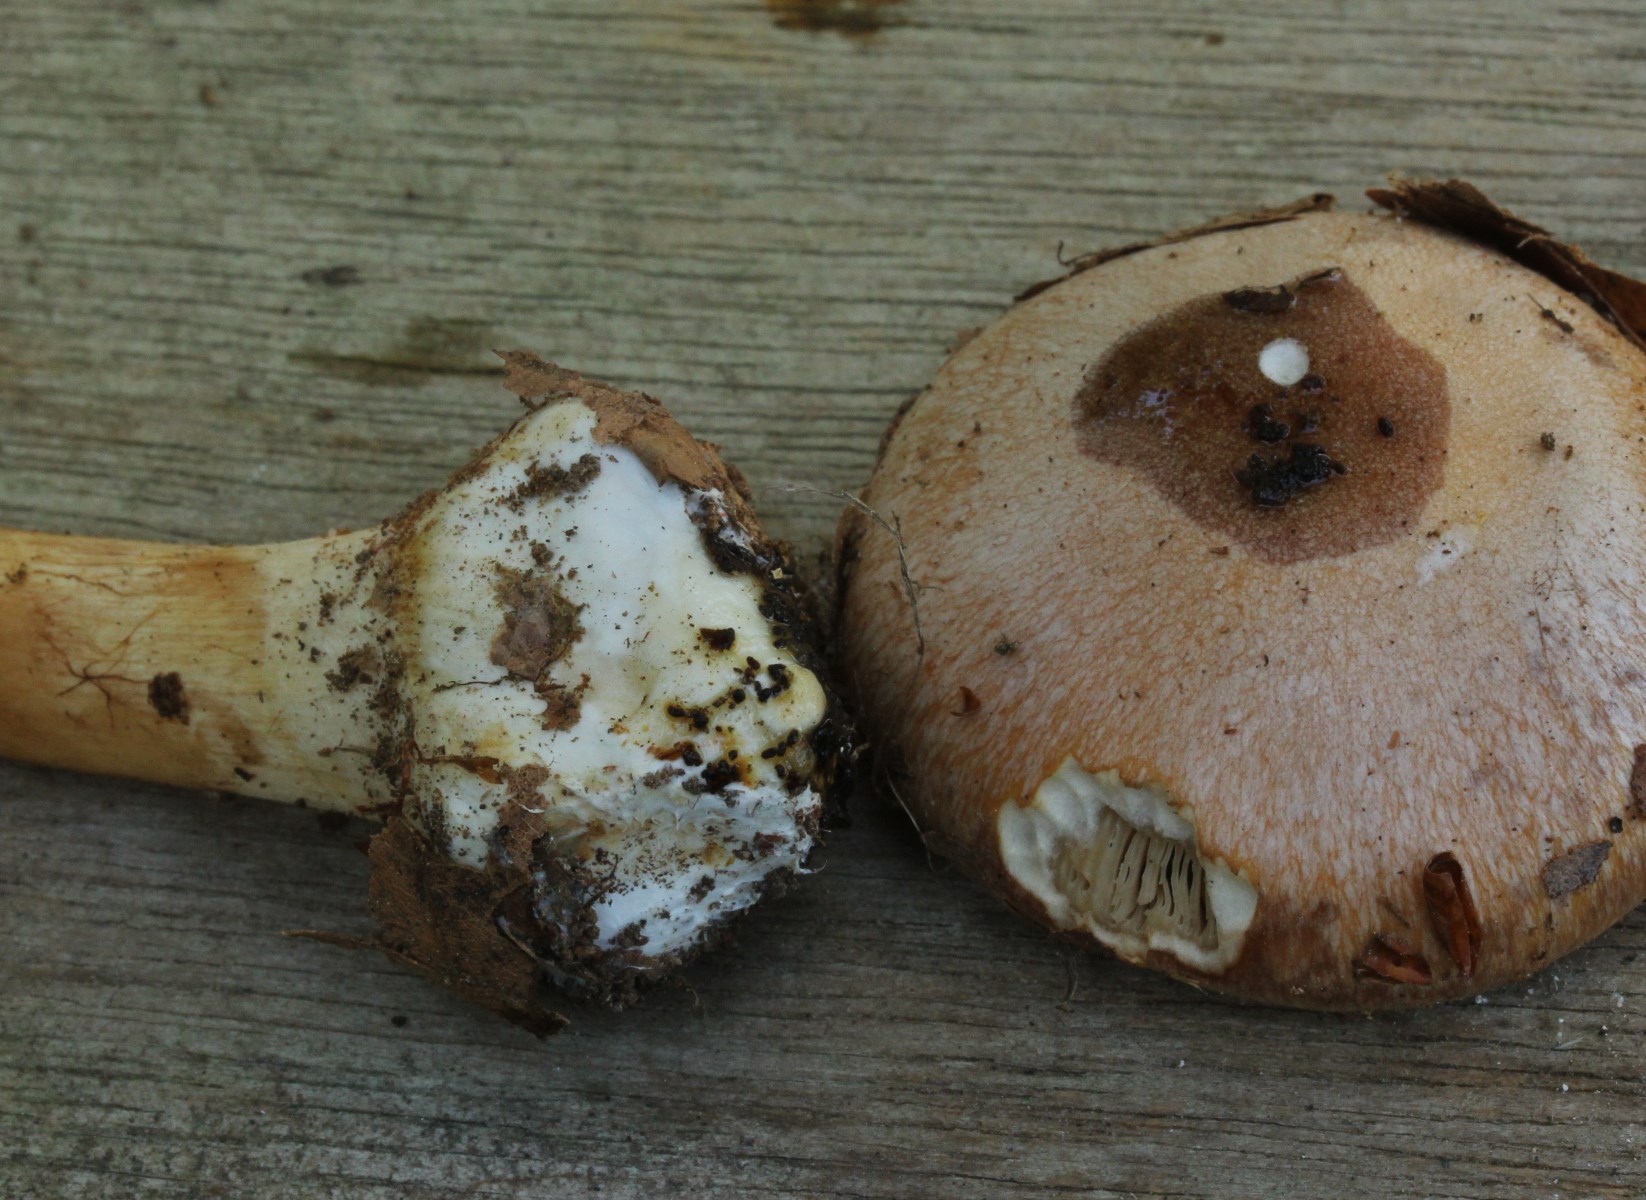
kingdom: Fungi
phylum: Basidiomycota
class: Agaricomycetes
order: Agaricales
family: Cortinariaceae
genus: Thaxterogaster
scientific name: Thaxterogaster talus
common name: knogle-slørhat
